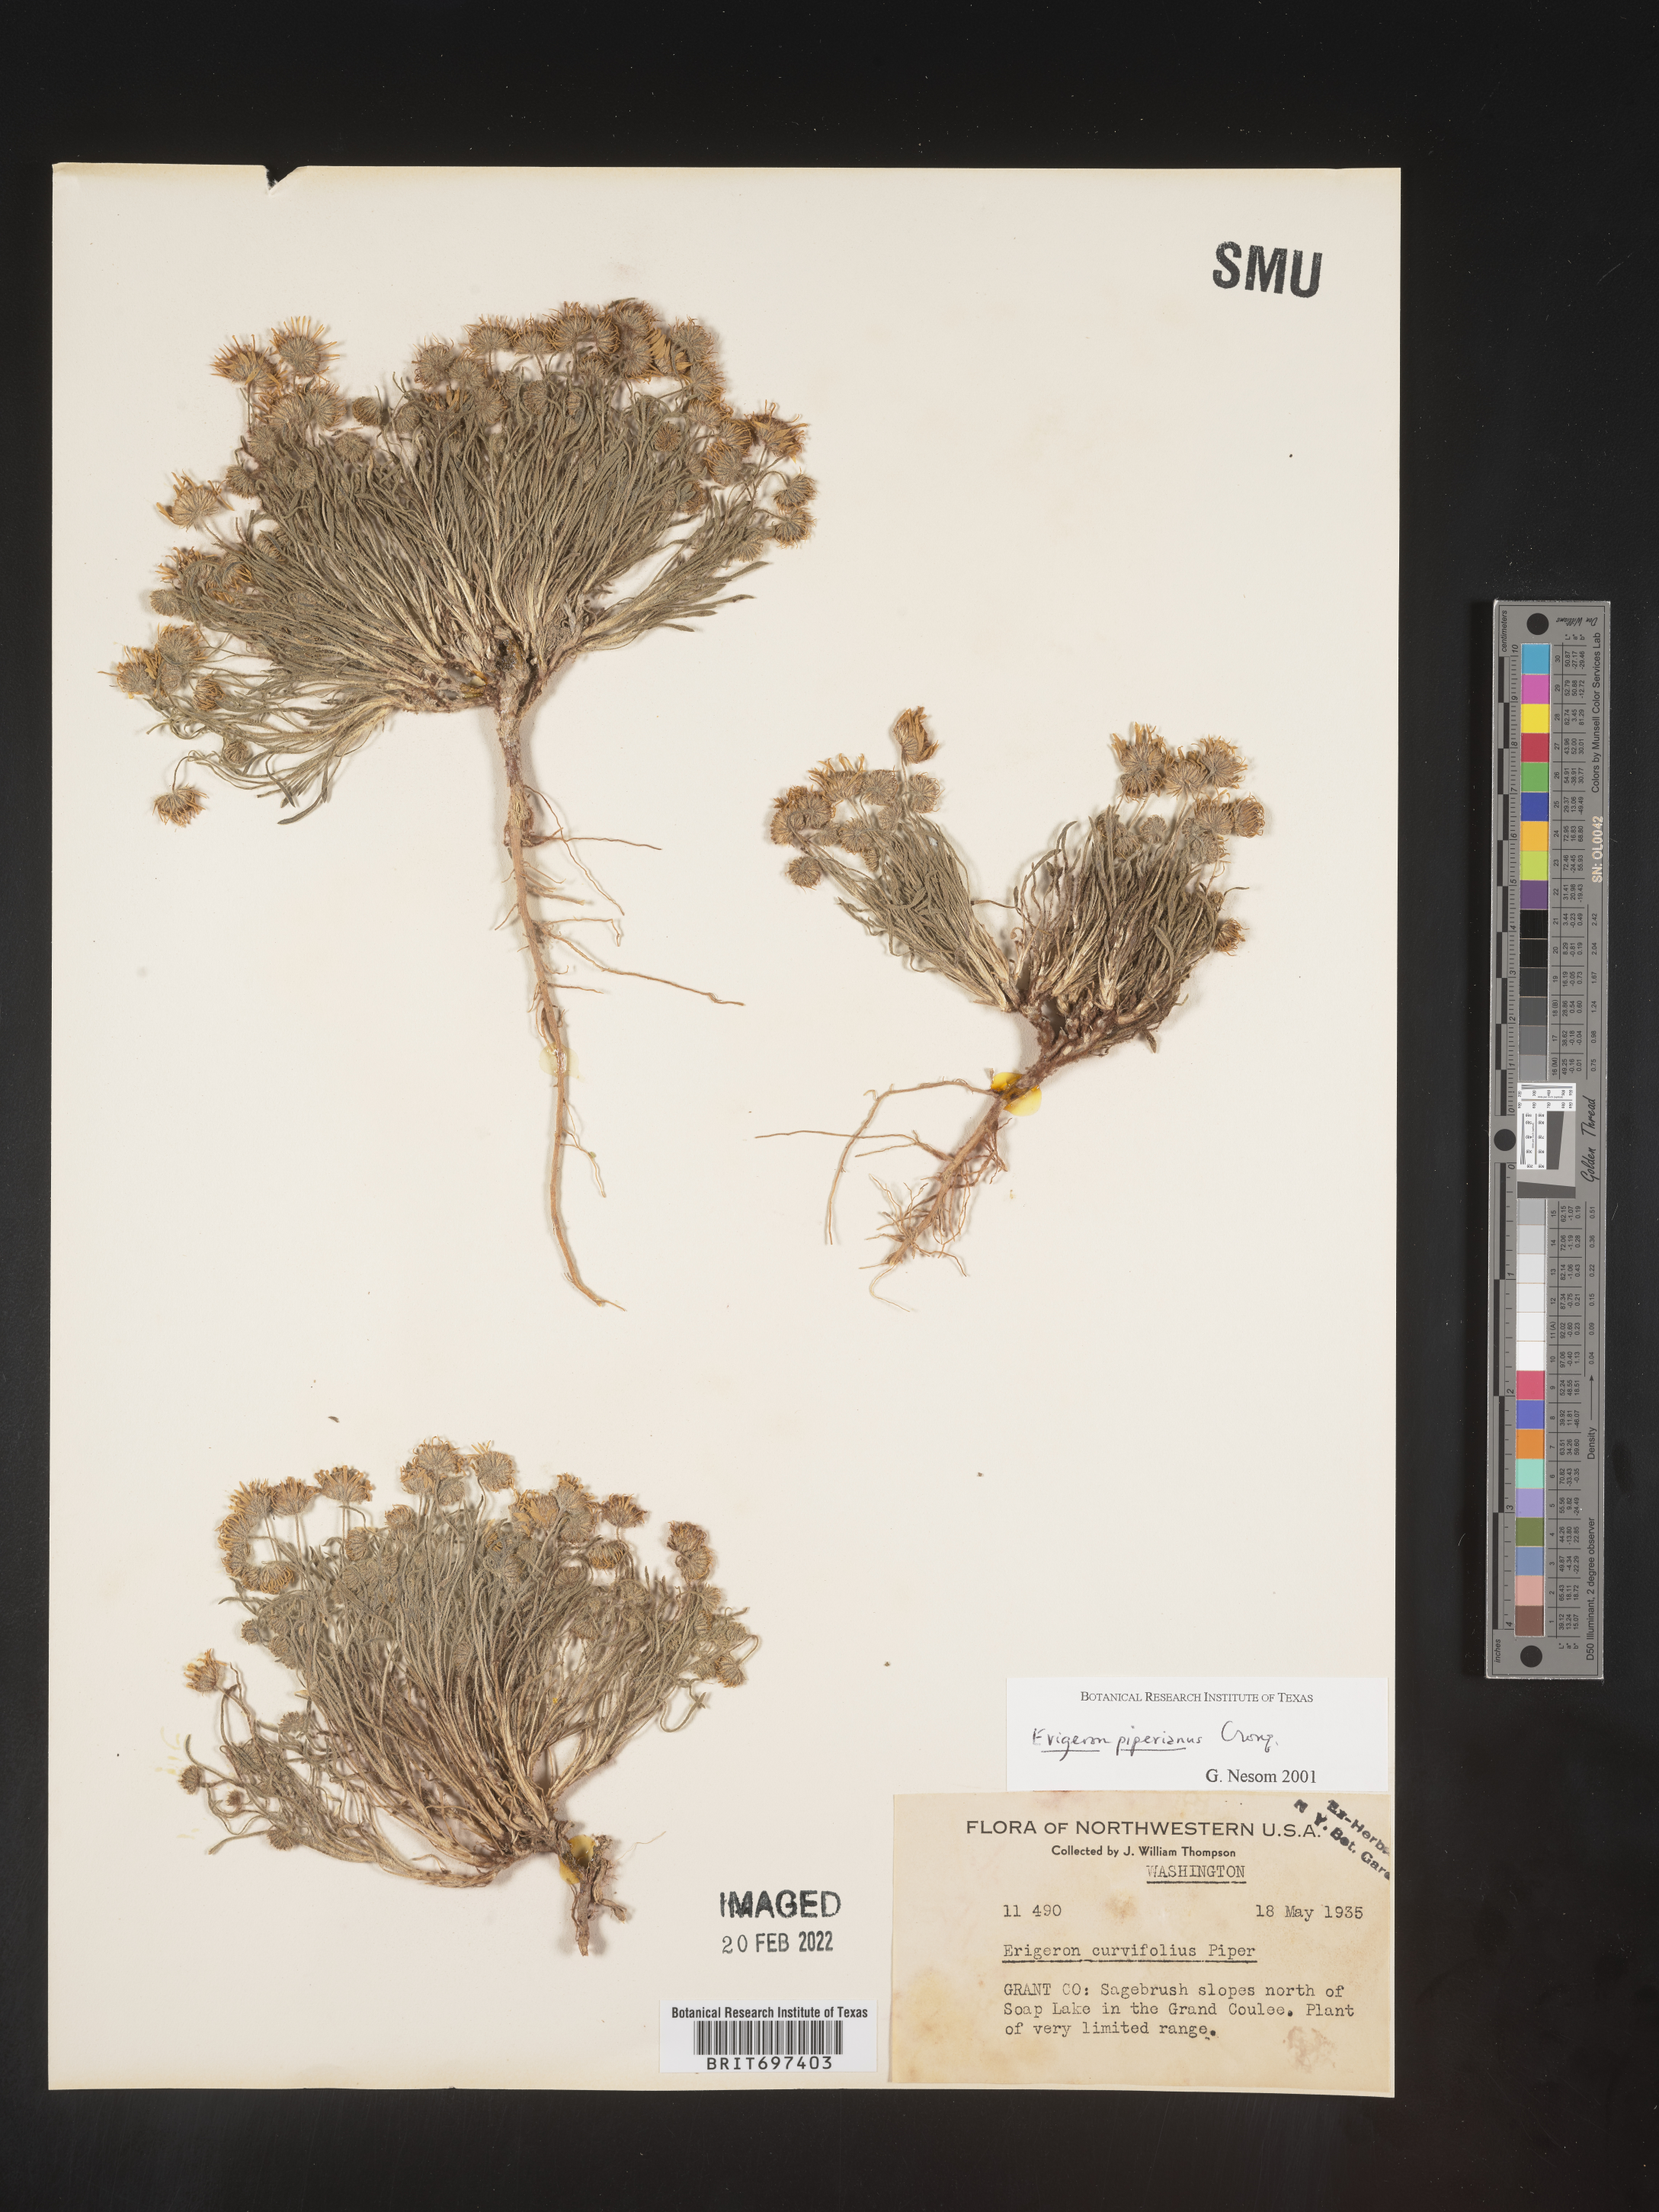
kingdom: Plantae
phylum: Tracheophyta
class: Magnoliopsida
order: Asterales
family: Asteraceae
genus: Erigeron
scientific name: Erigeron piperianus
